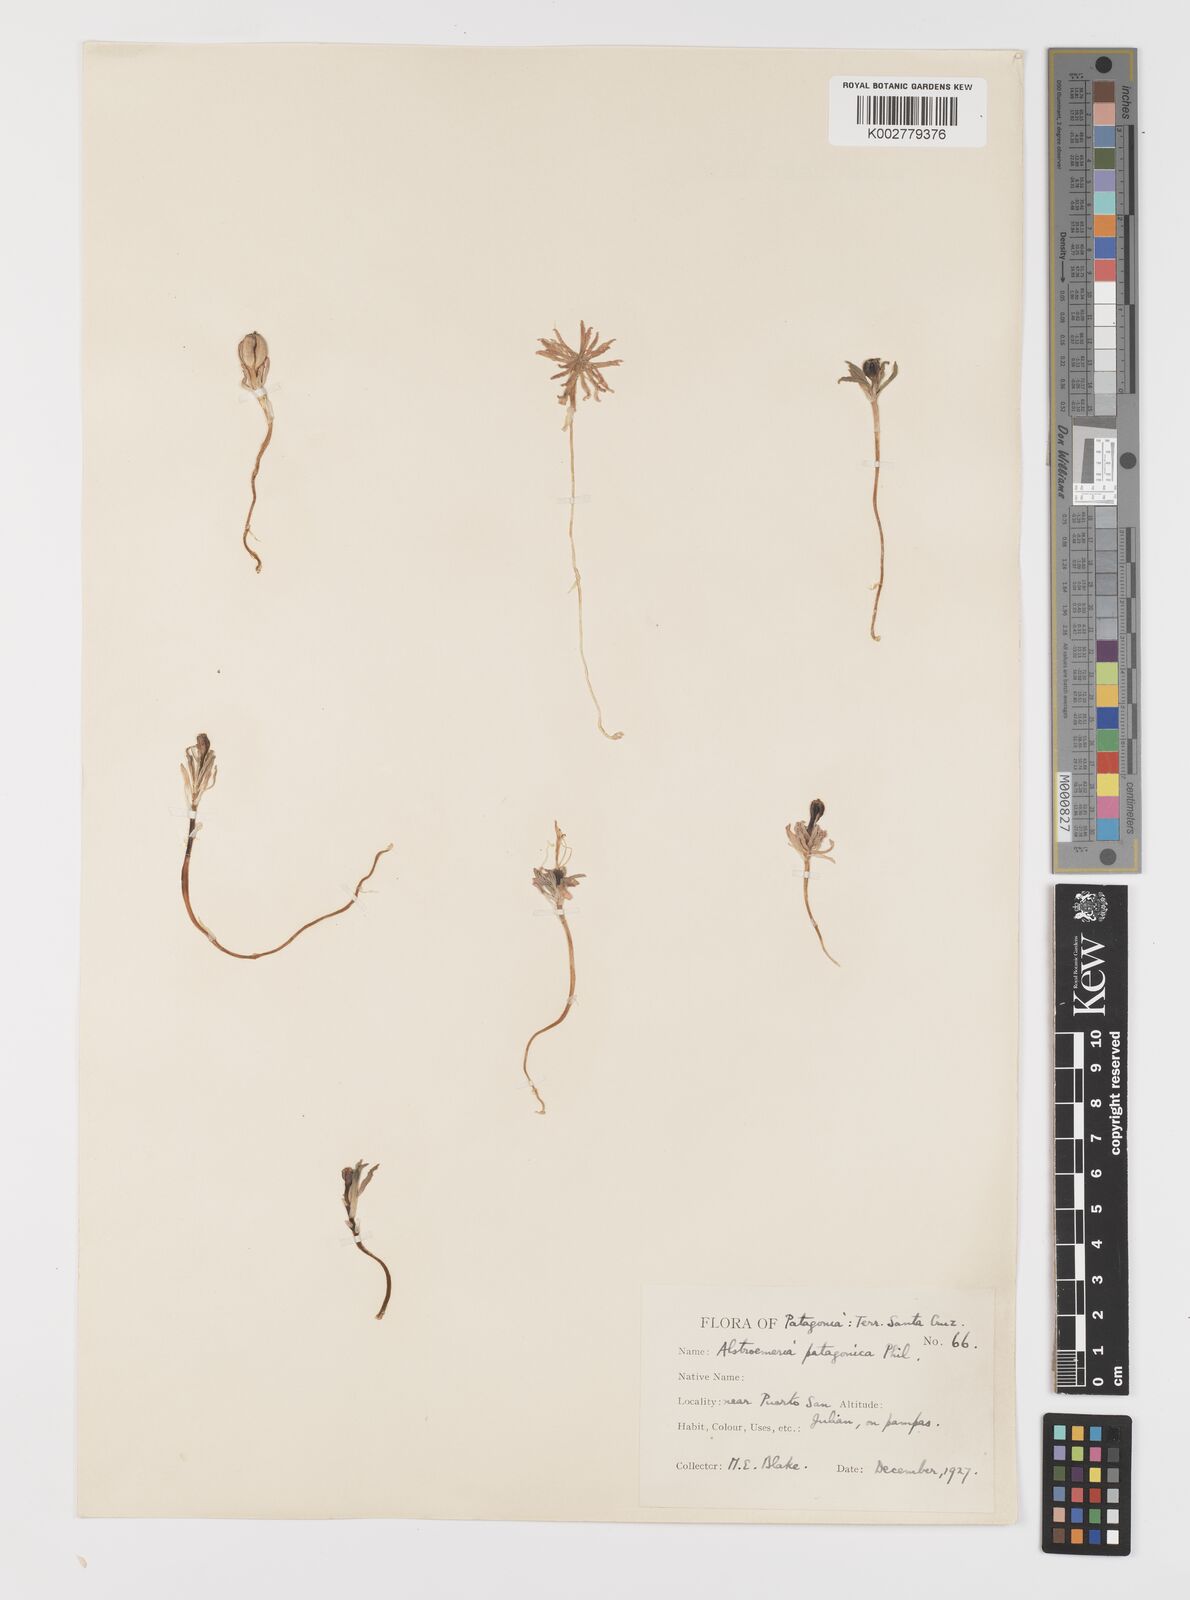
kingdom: Plantae
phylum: Tracheophyta
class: Liliopsida
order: Liliales
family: Alstroemeriaceae
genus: Alstroemeria
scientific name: Alstroemeria patagonica
